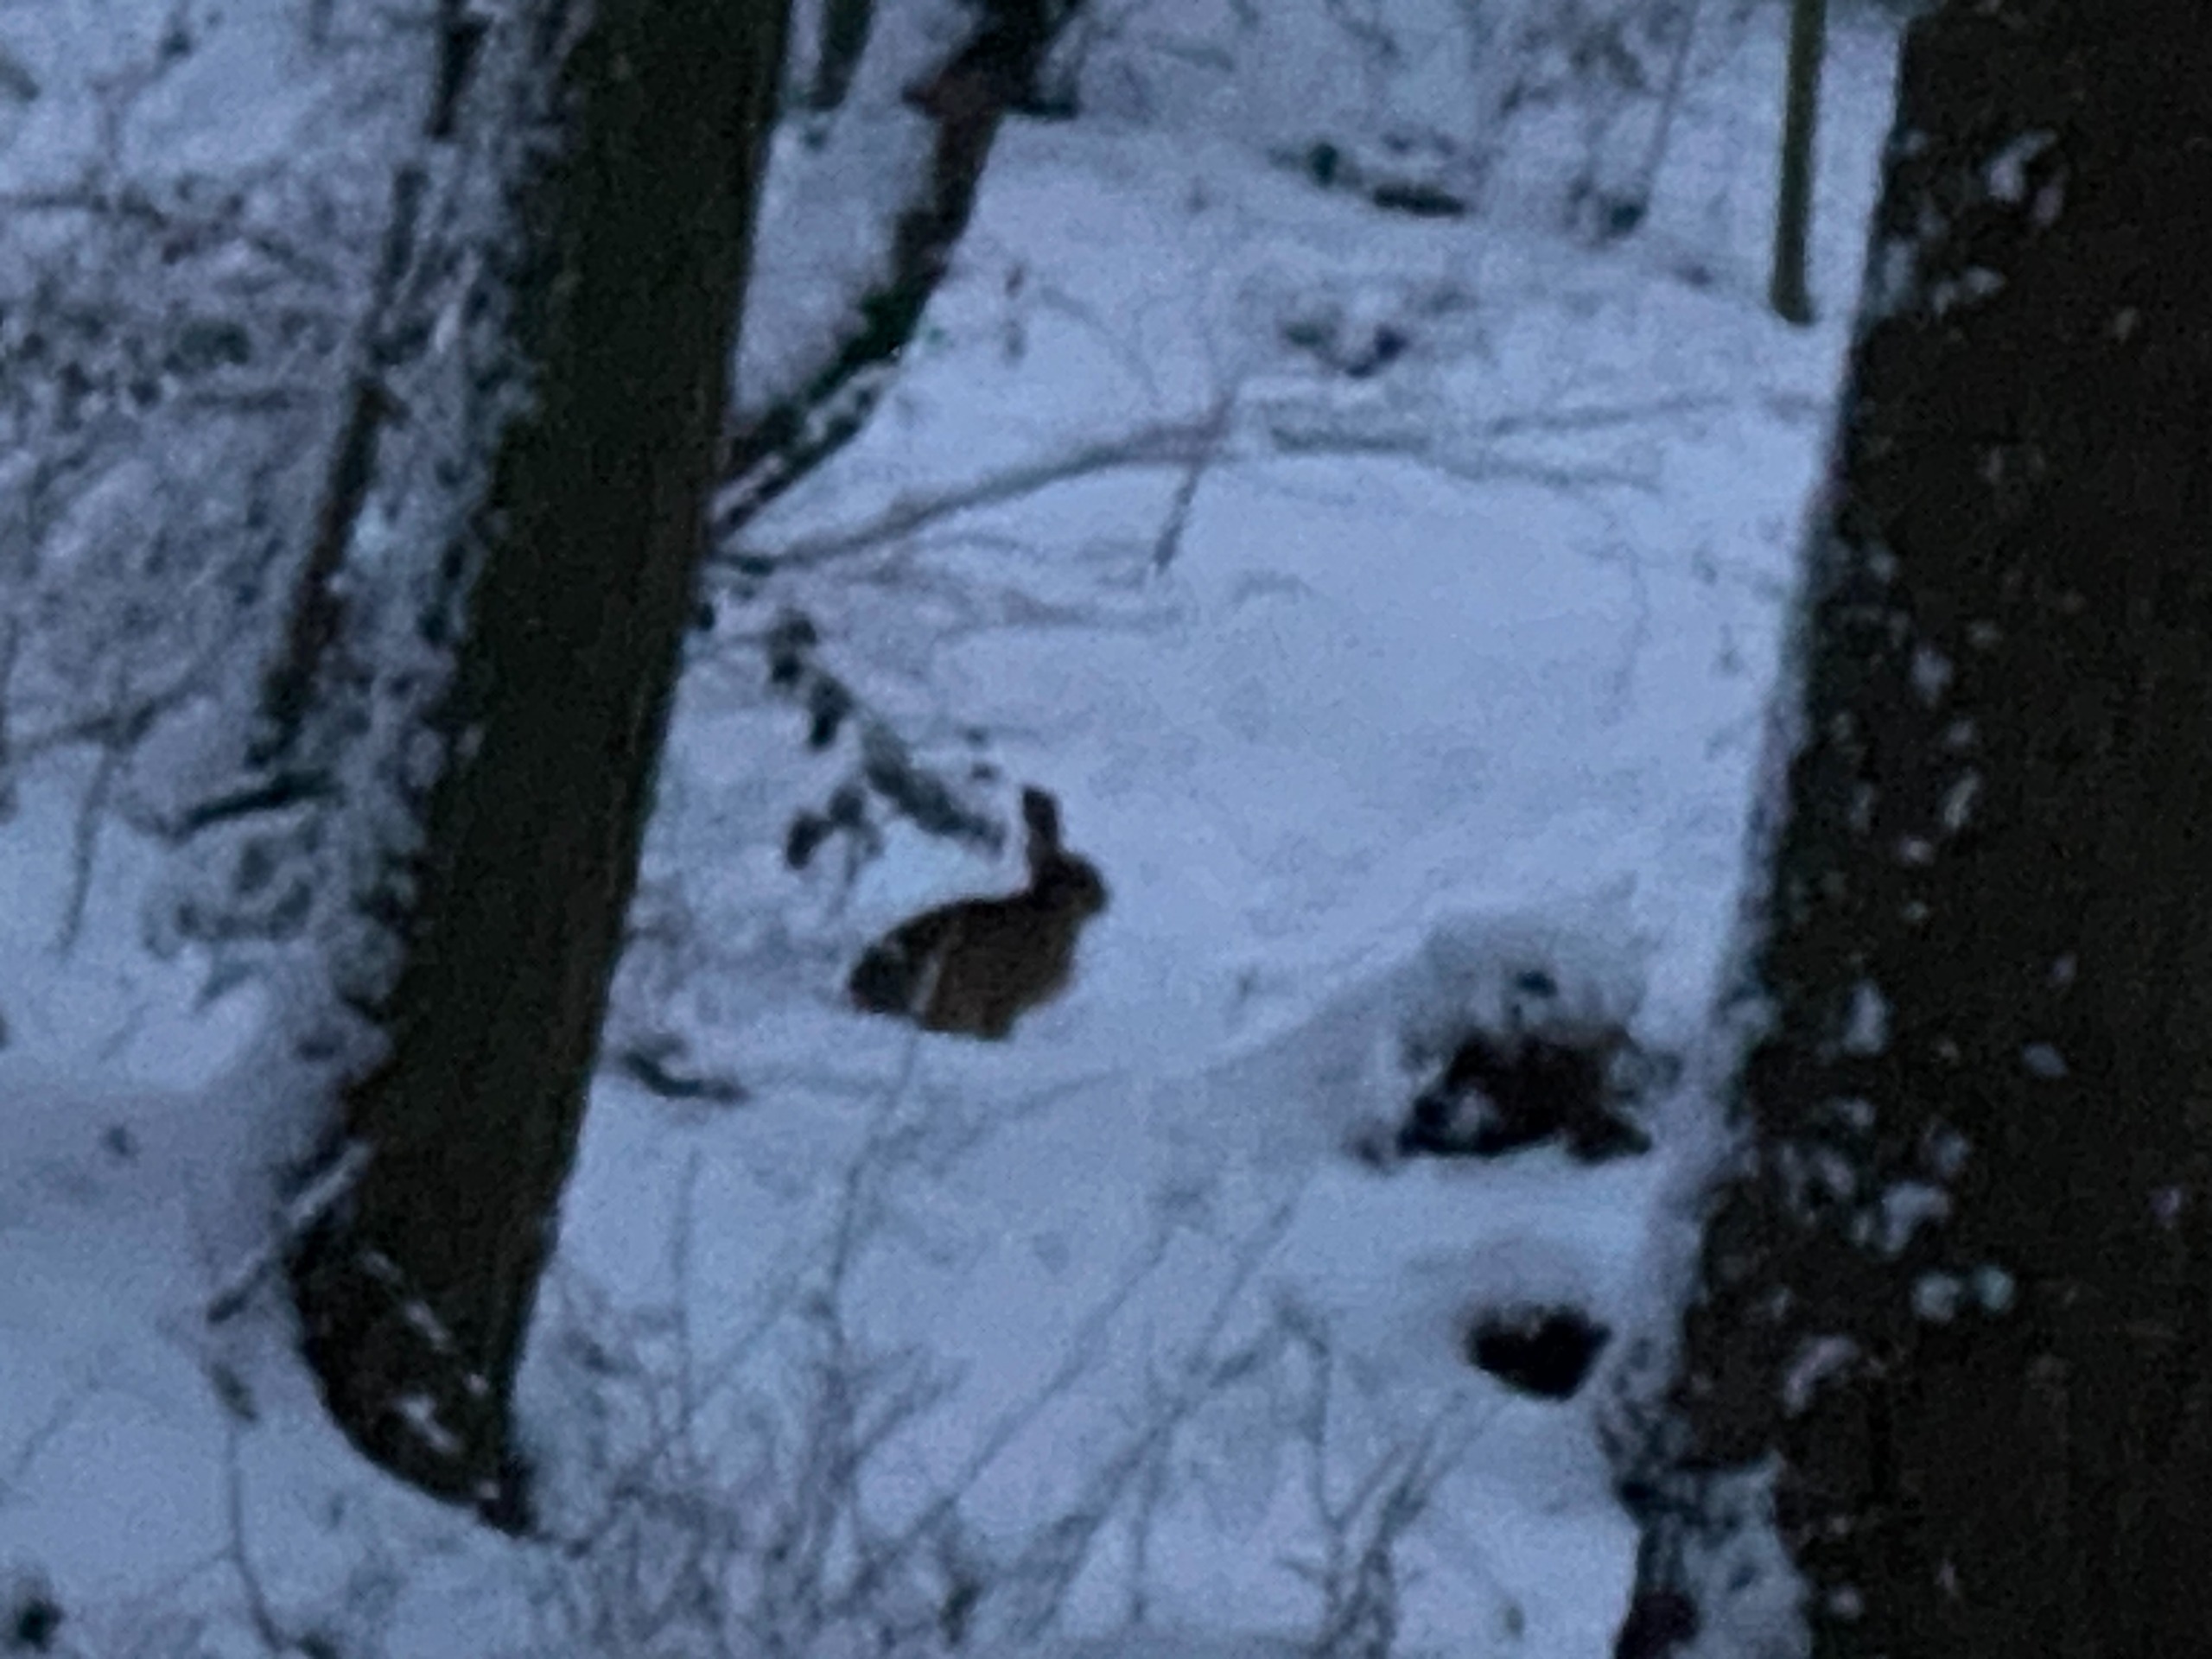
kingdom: Animalia
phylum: Chordata
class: Mammalia
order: Lagomorpha
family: Leporidae
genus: Lepus
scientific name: Lepus europaeus
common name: Hare
